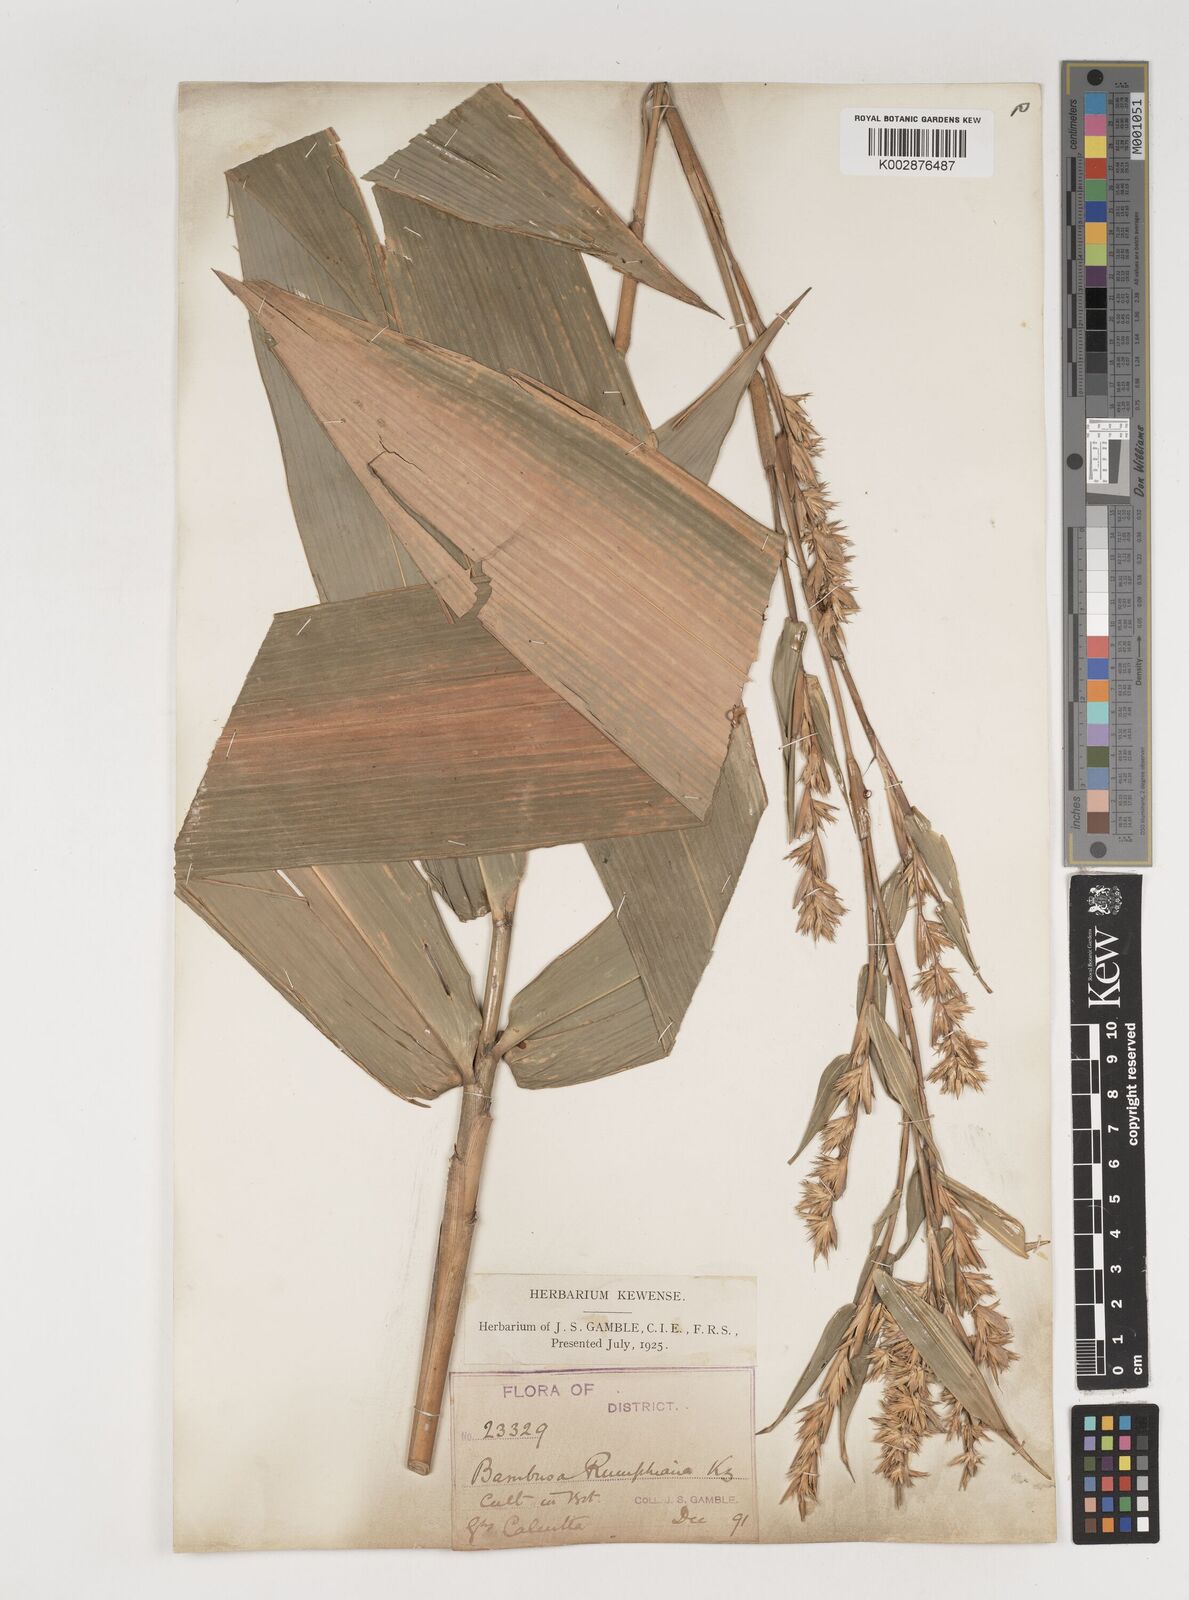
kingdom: Plantae
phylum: Tracheophyta
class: Liliopsida
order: Poales
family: Poaceae
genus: Neololeba
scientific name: Neololeba amahussana
